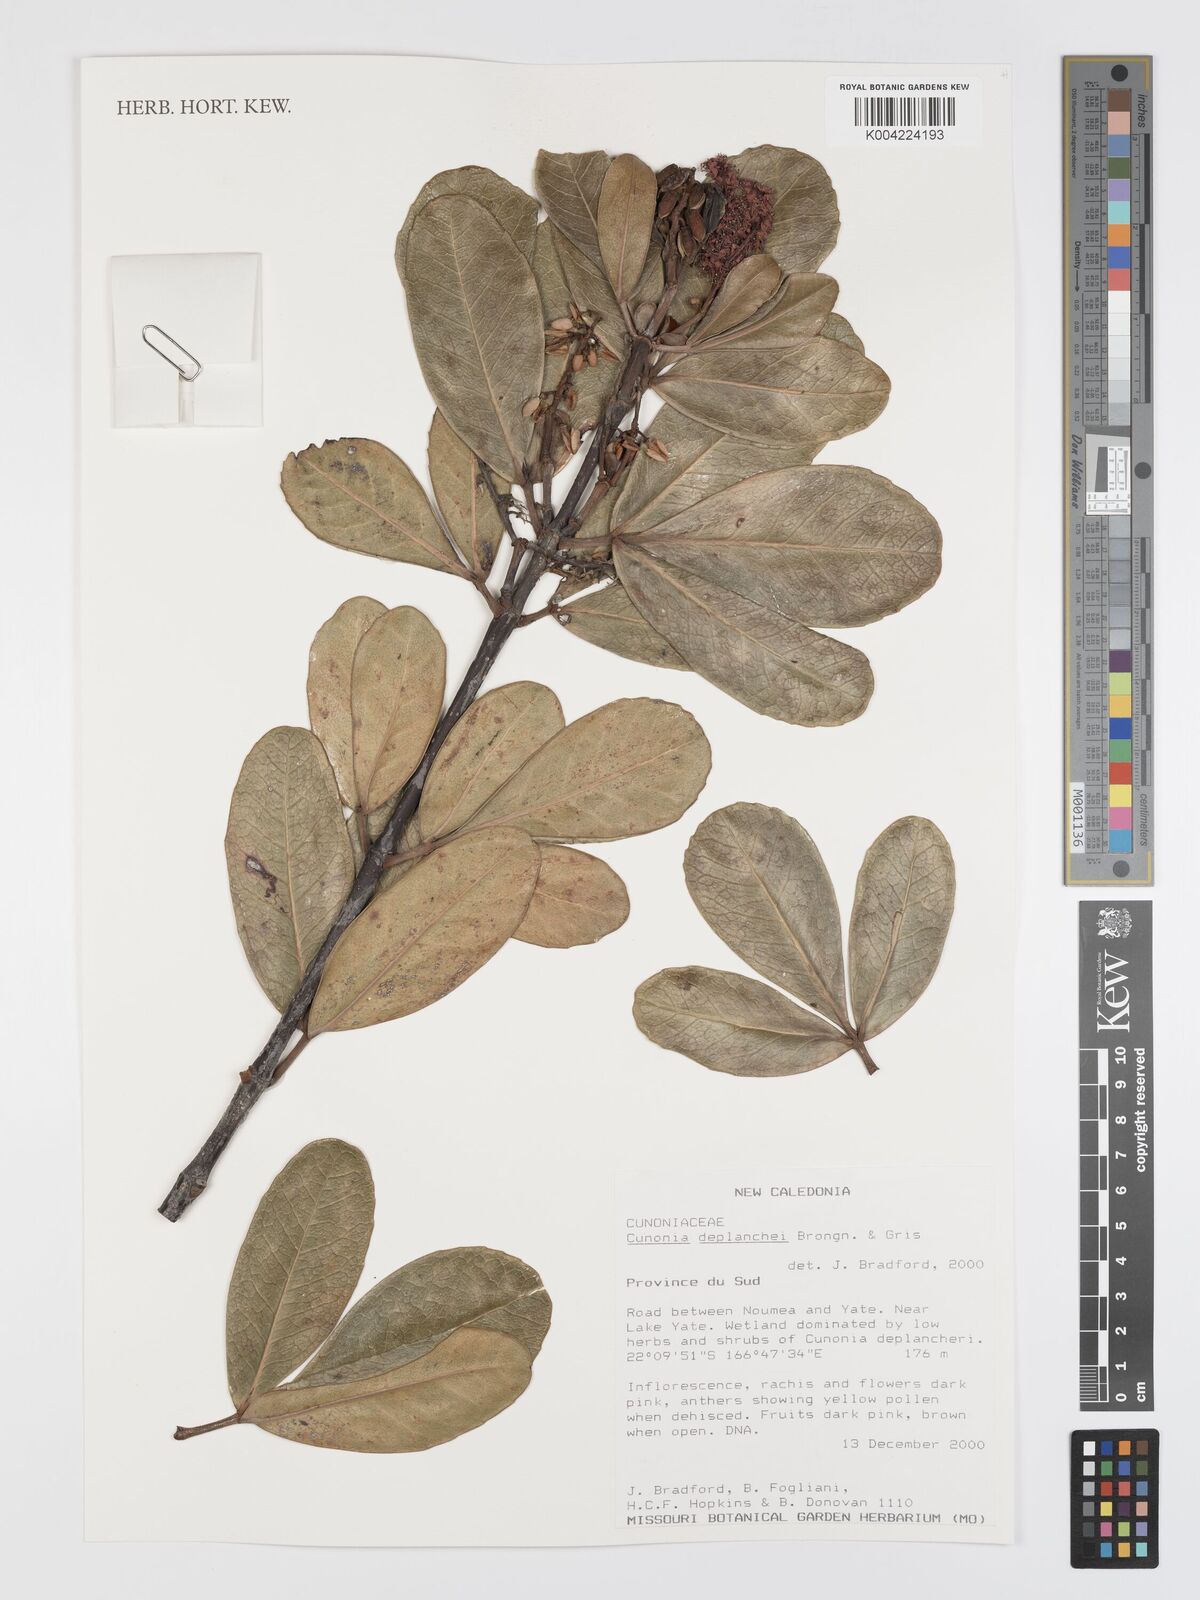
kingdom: Plantae
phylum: Tracheophyta
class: Magnoliopsida
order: Oxalidales
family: Cunoniaceae
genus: Cunonia
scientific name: Cunonia deplanchei
